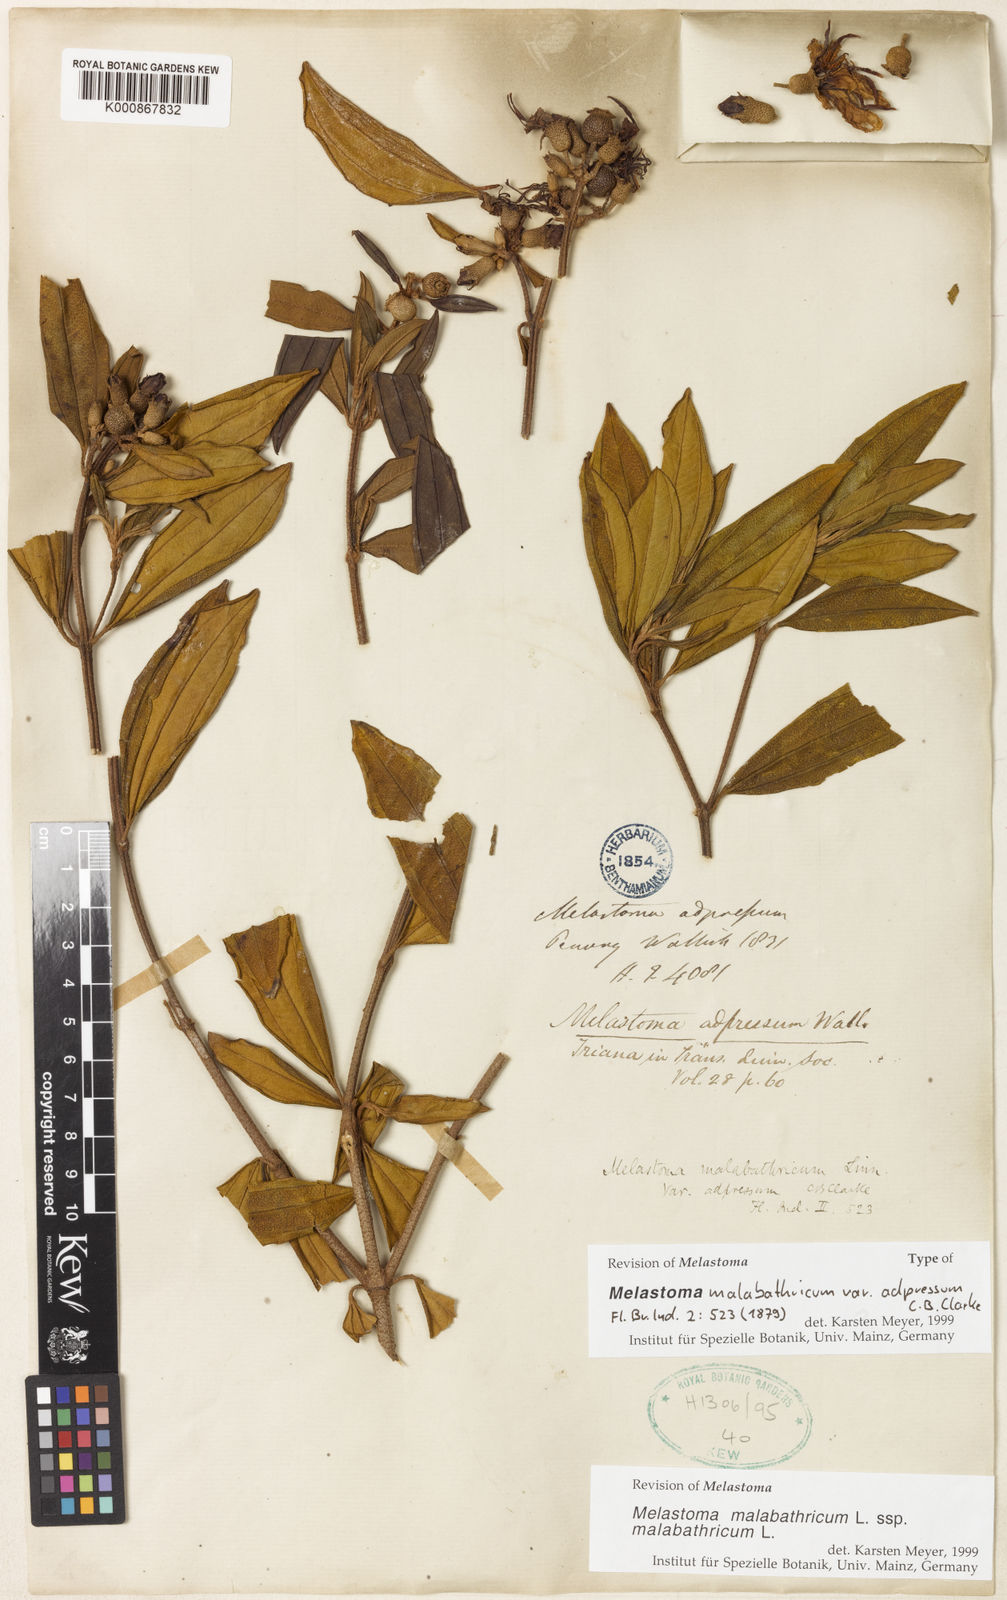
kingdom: Plantae
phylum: Tracheophyta
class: Magnoliopsida
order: Myrtales
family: Melastomataceae
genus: Melastoma
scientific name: Melastoma malabathricum
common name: Indian-rhododendron
